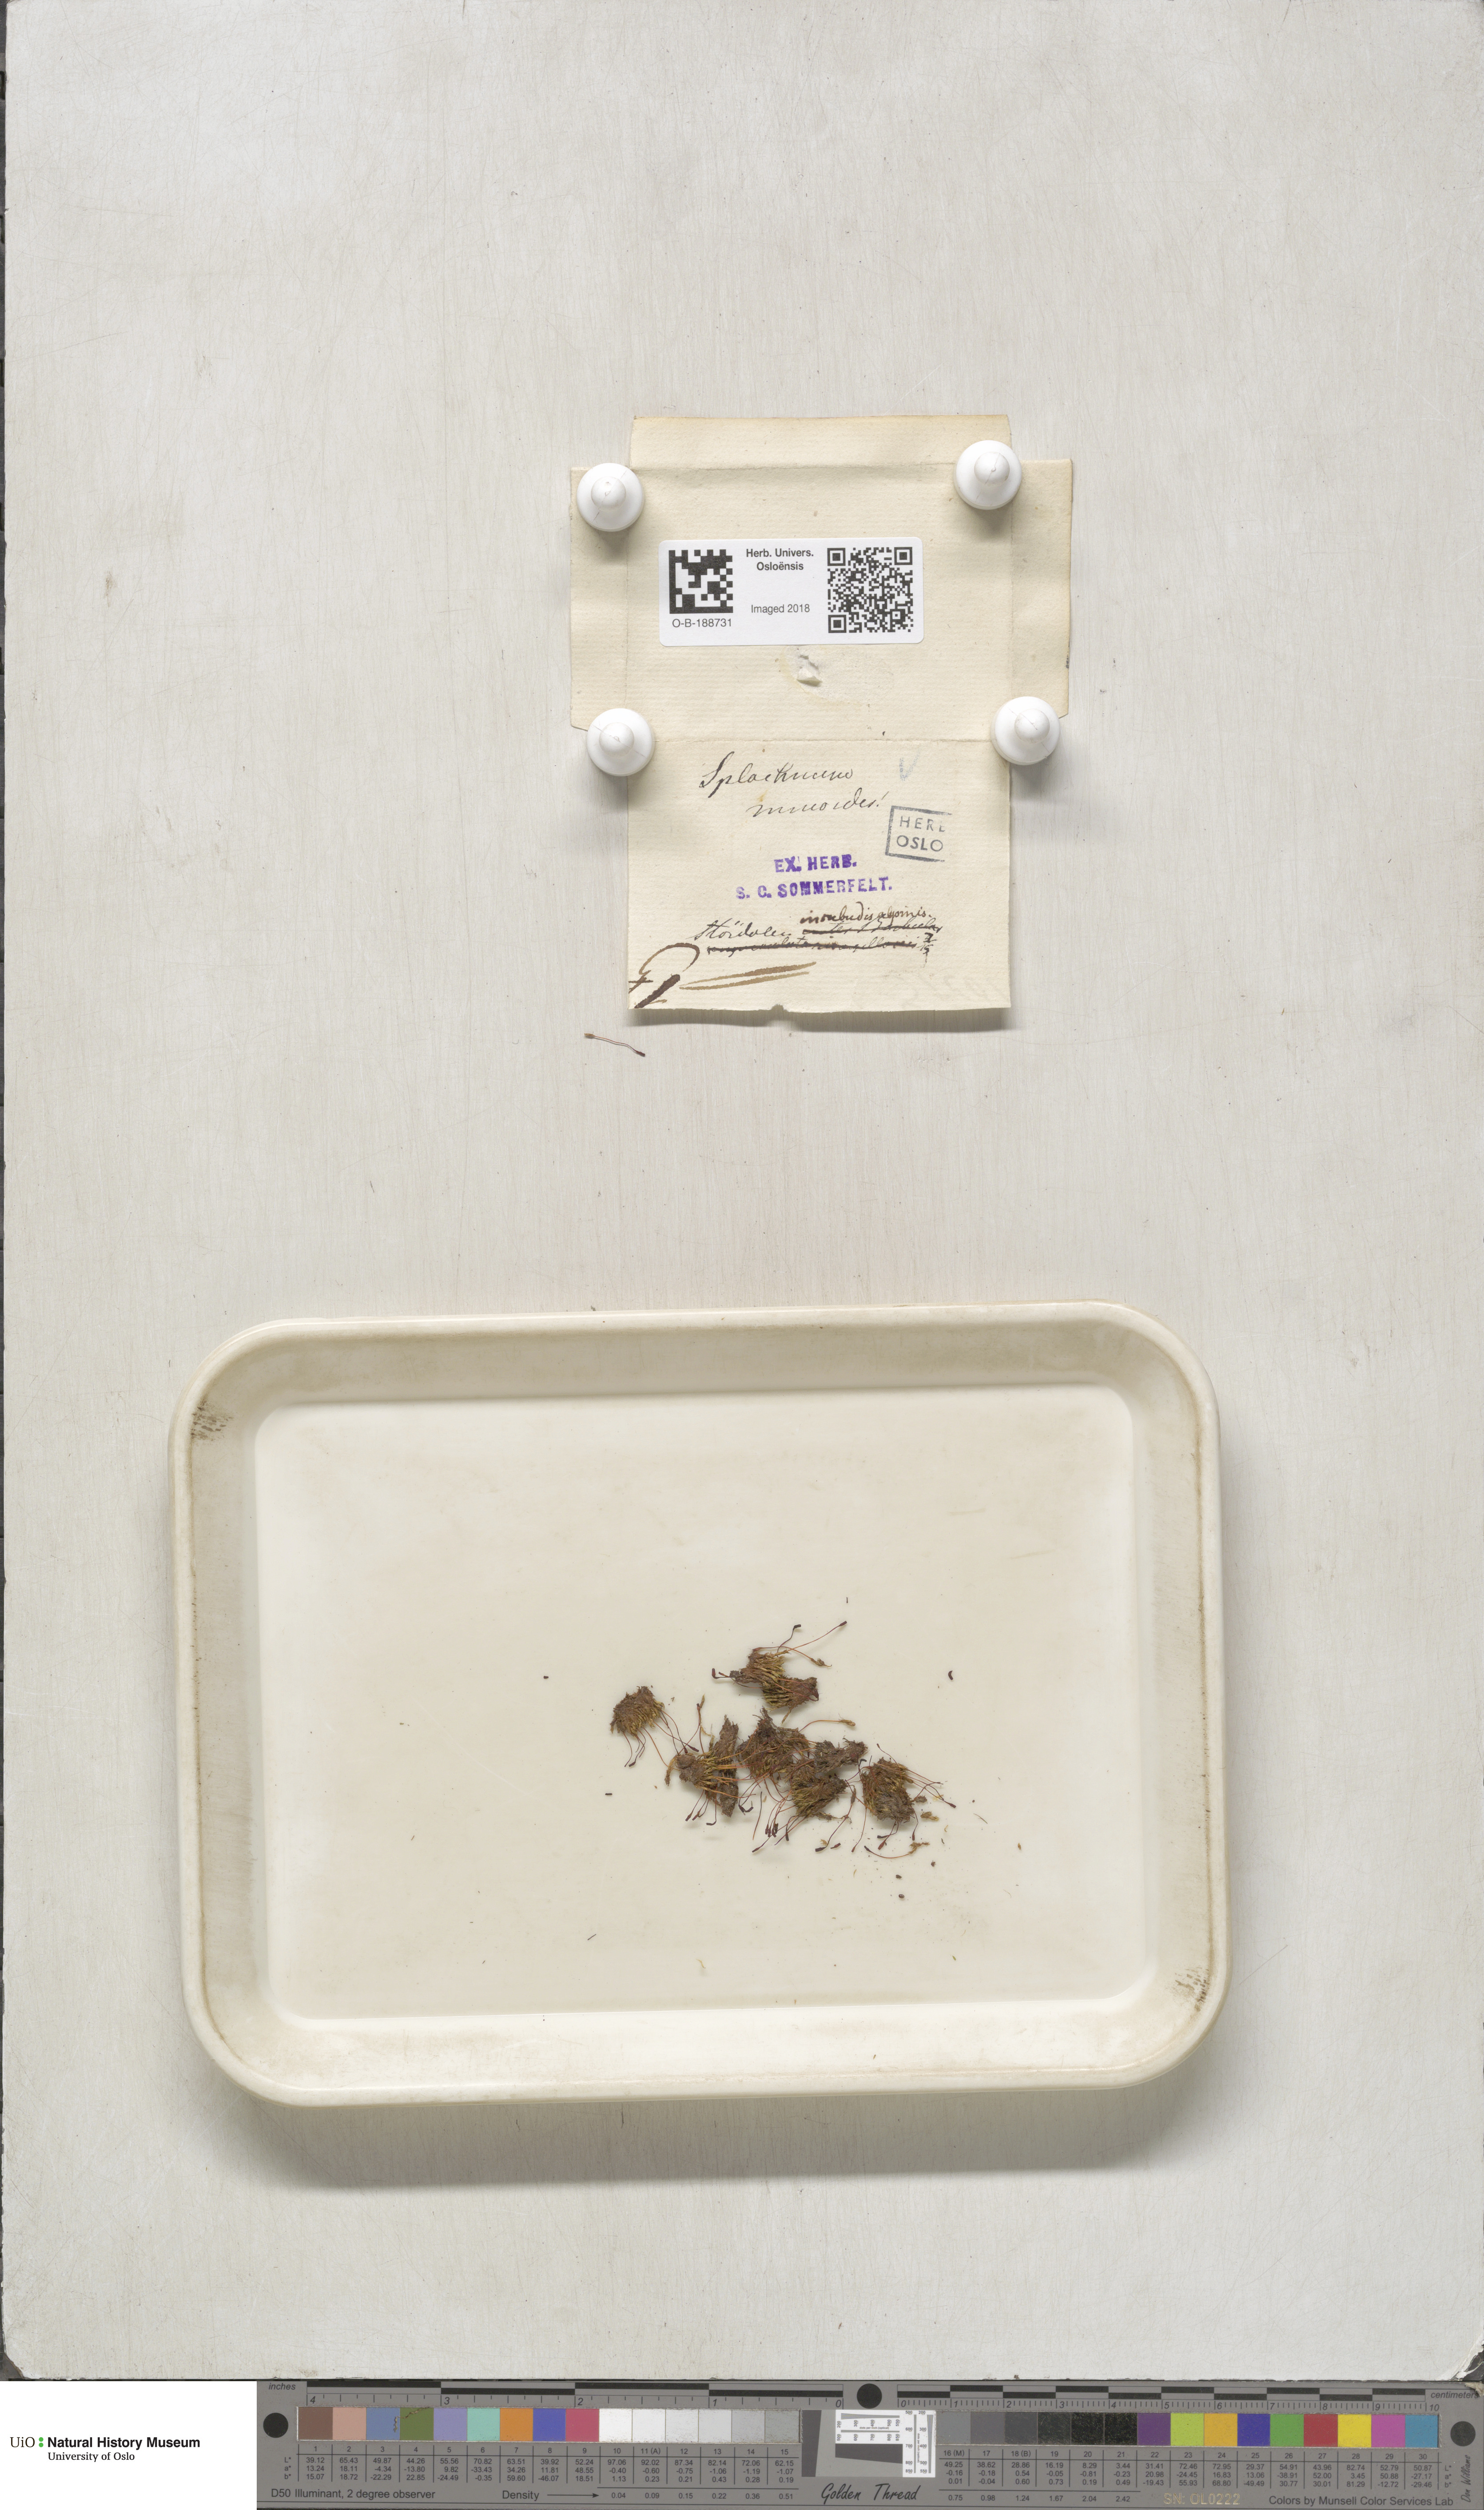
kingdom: Plantae
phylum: Bryophyta
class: Bryopsida
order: Splachnales
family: Splachnaceae
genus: Tetraplodon
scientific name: Tetraplodon mnioides
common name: Entire-leaved nitrogen moss
